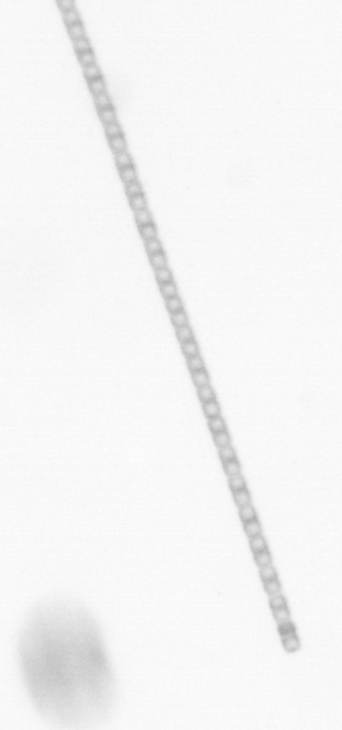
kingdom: Chromista
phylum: Ochrophyta
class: Bacillariophyceae
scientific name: Bacillariophyceae
